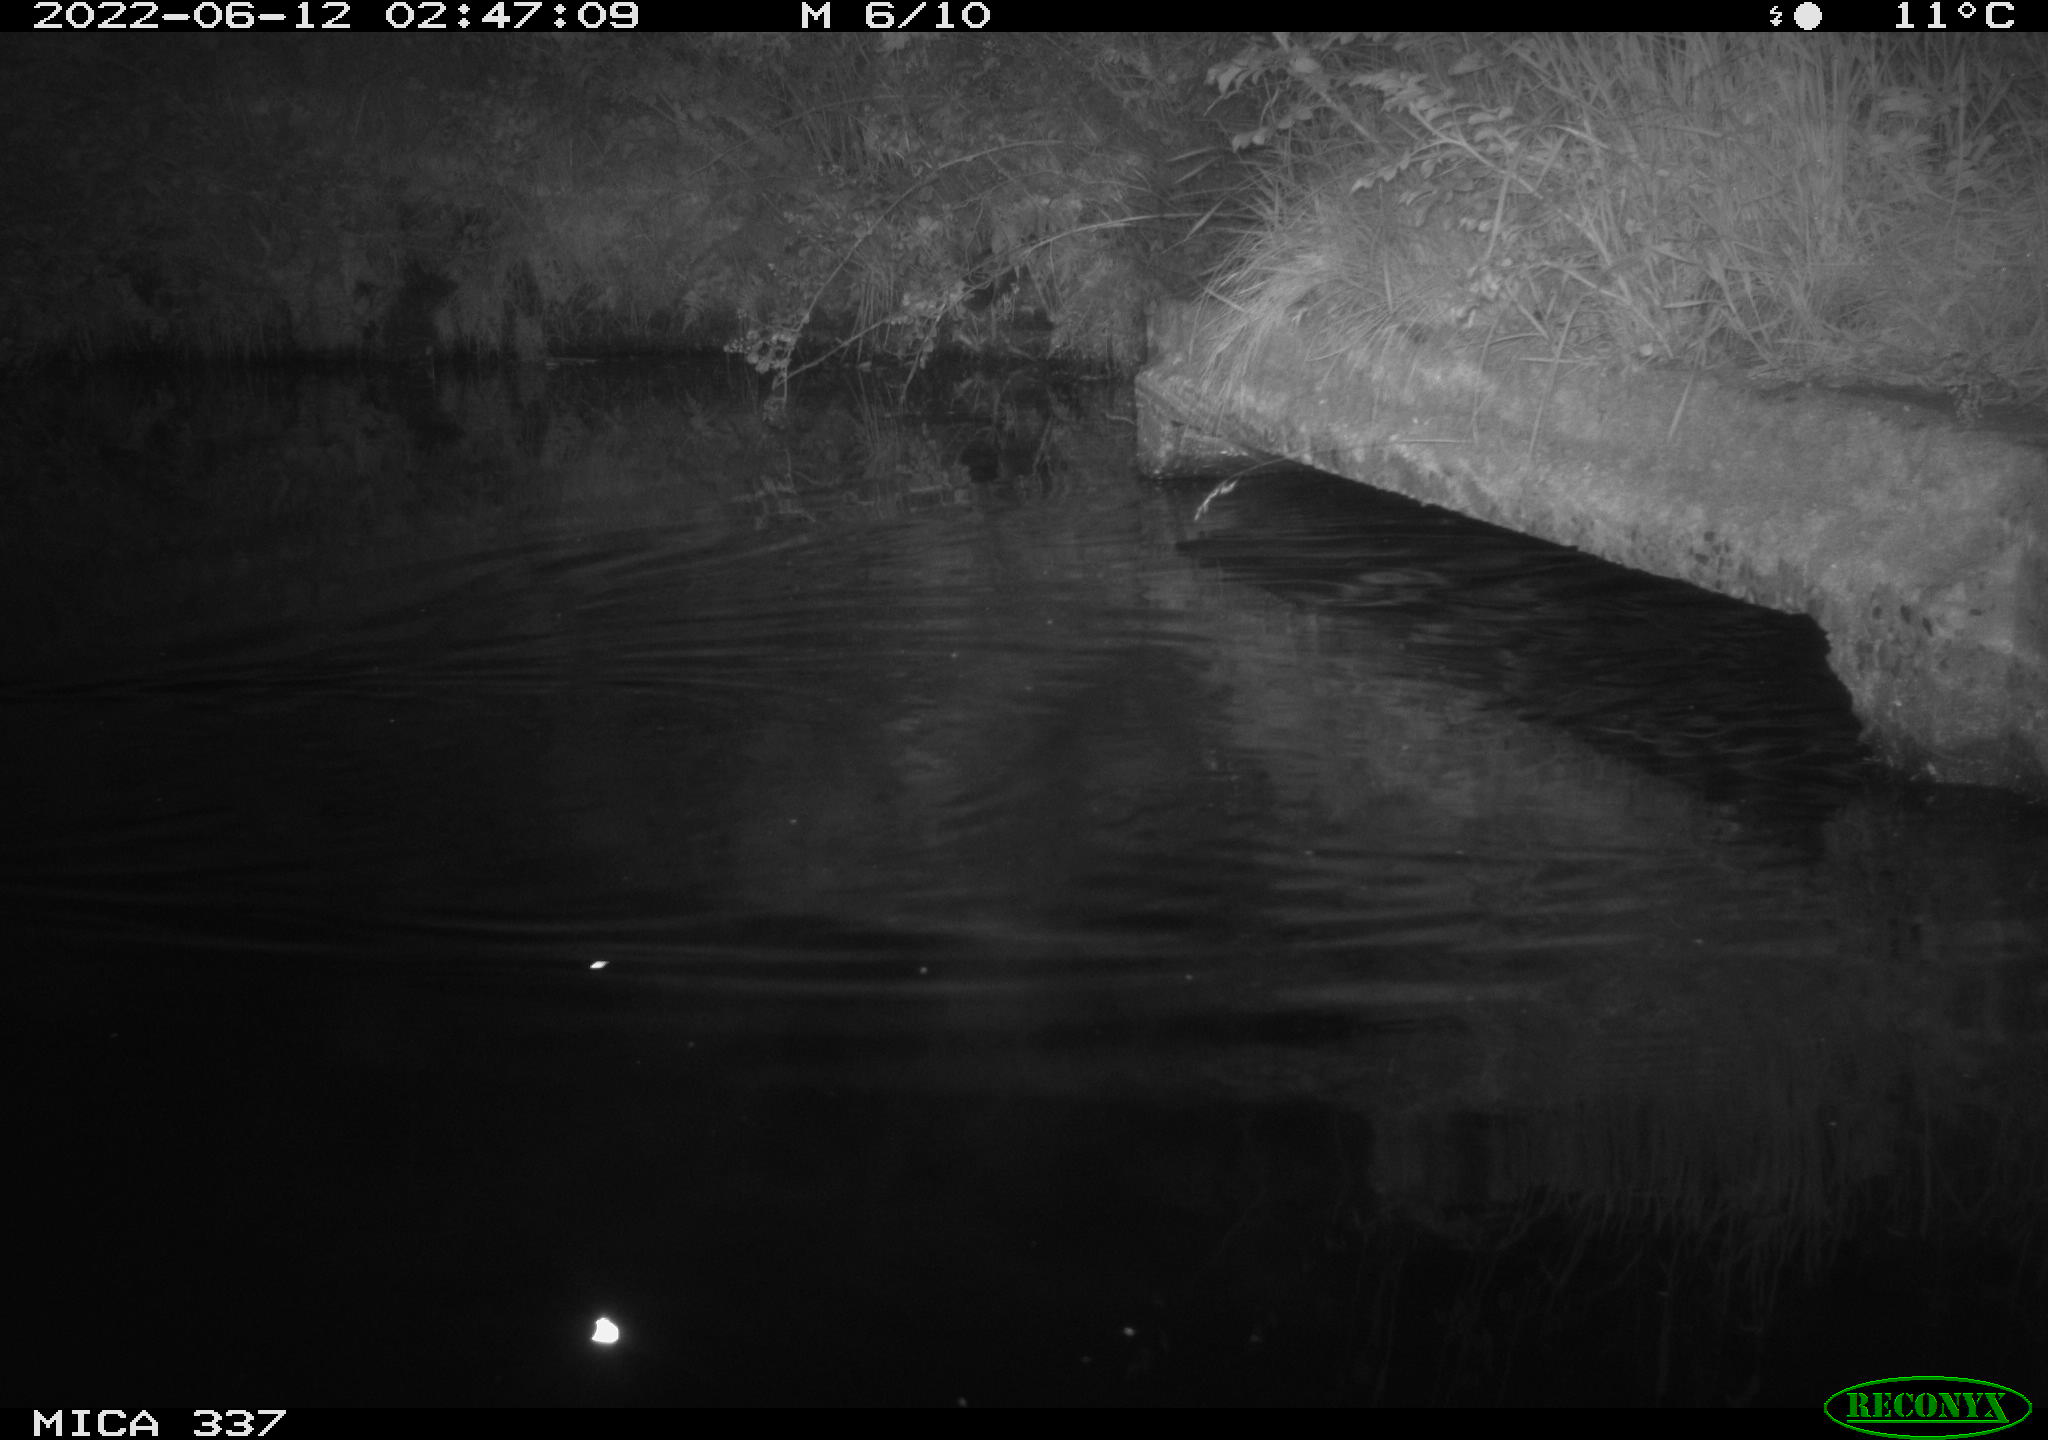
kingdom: Animalia
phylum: Chordata
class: Mammalia
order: Rodentia
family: Cricetidae
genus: Ondatra
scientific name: Ondatra zibethicus
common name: Muskrat
